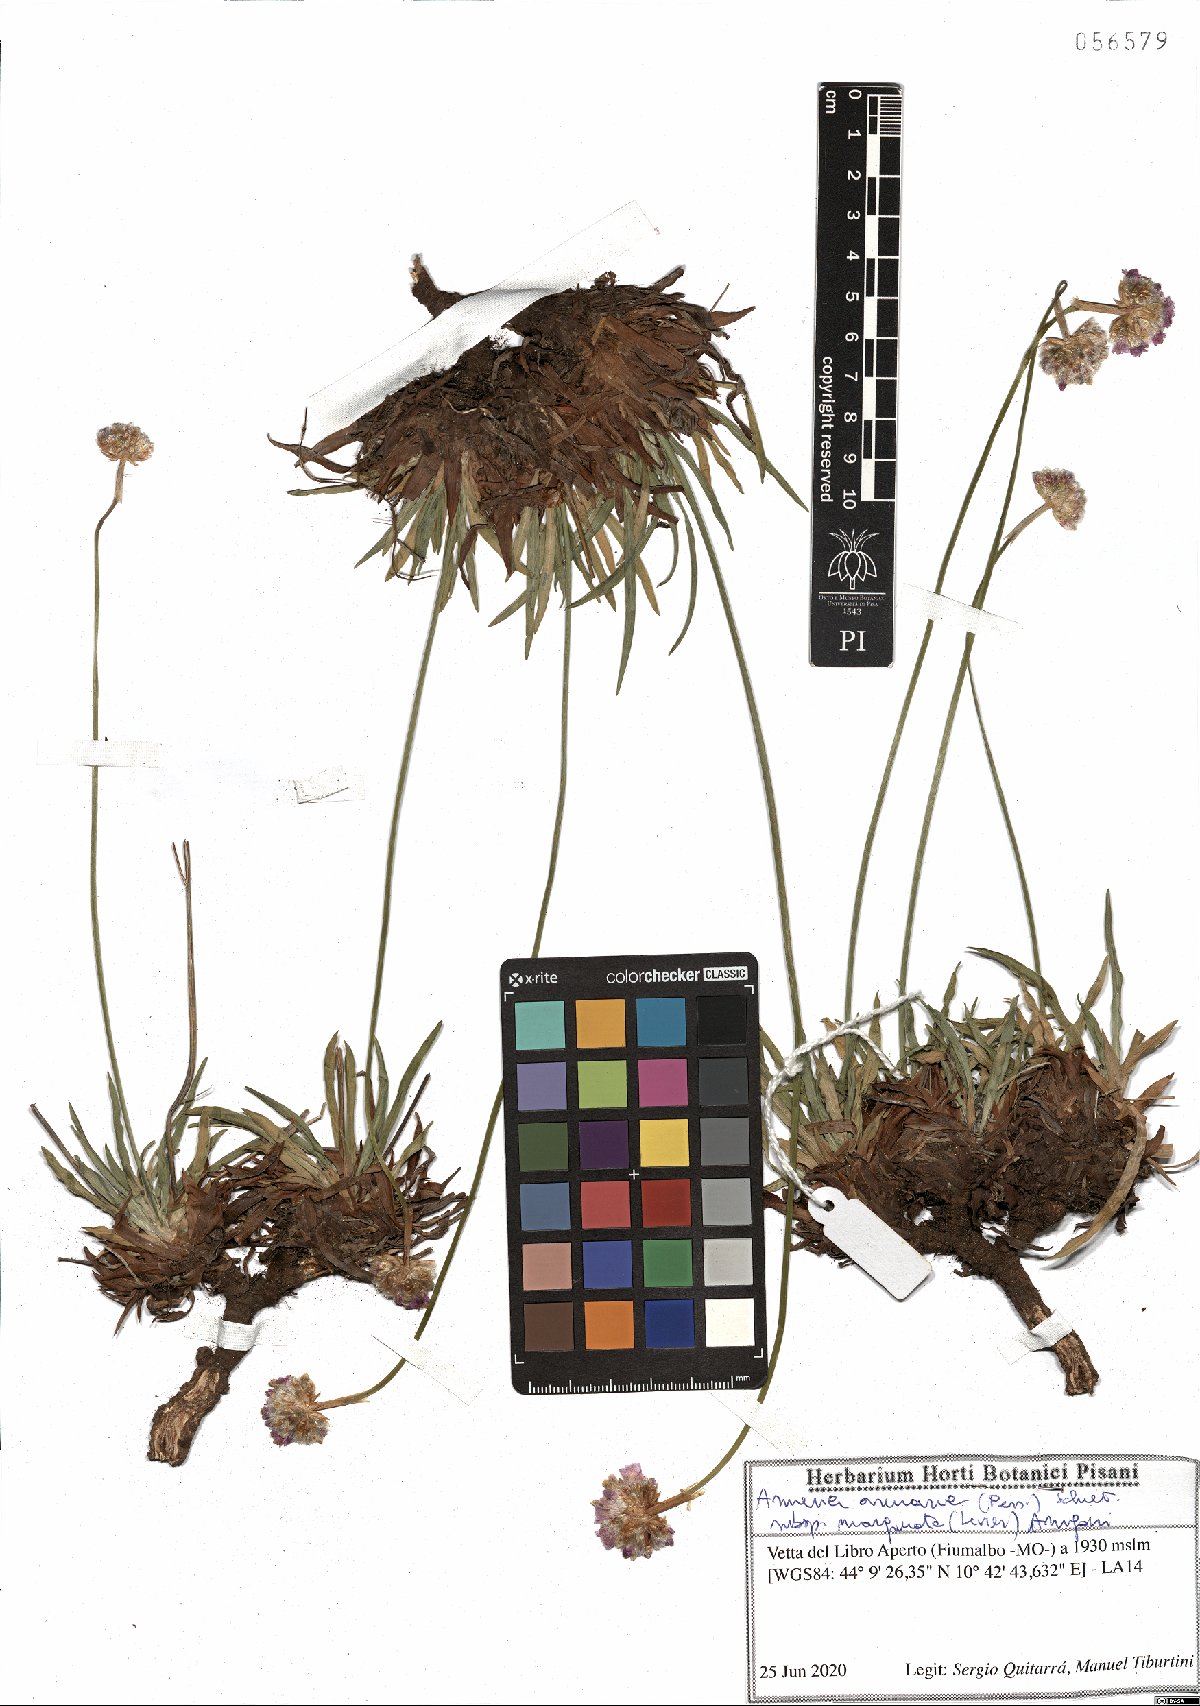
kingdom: Plantae
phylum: Tracheophyta
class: Magnoliopsida
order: Caryophyllales
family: Plumbaginaceae
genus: Armeria
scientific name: Armeria arenaria
